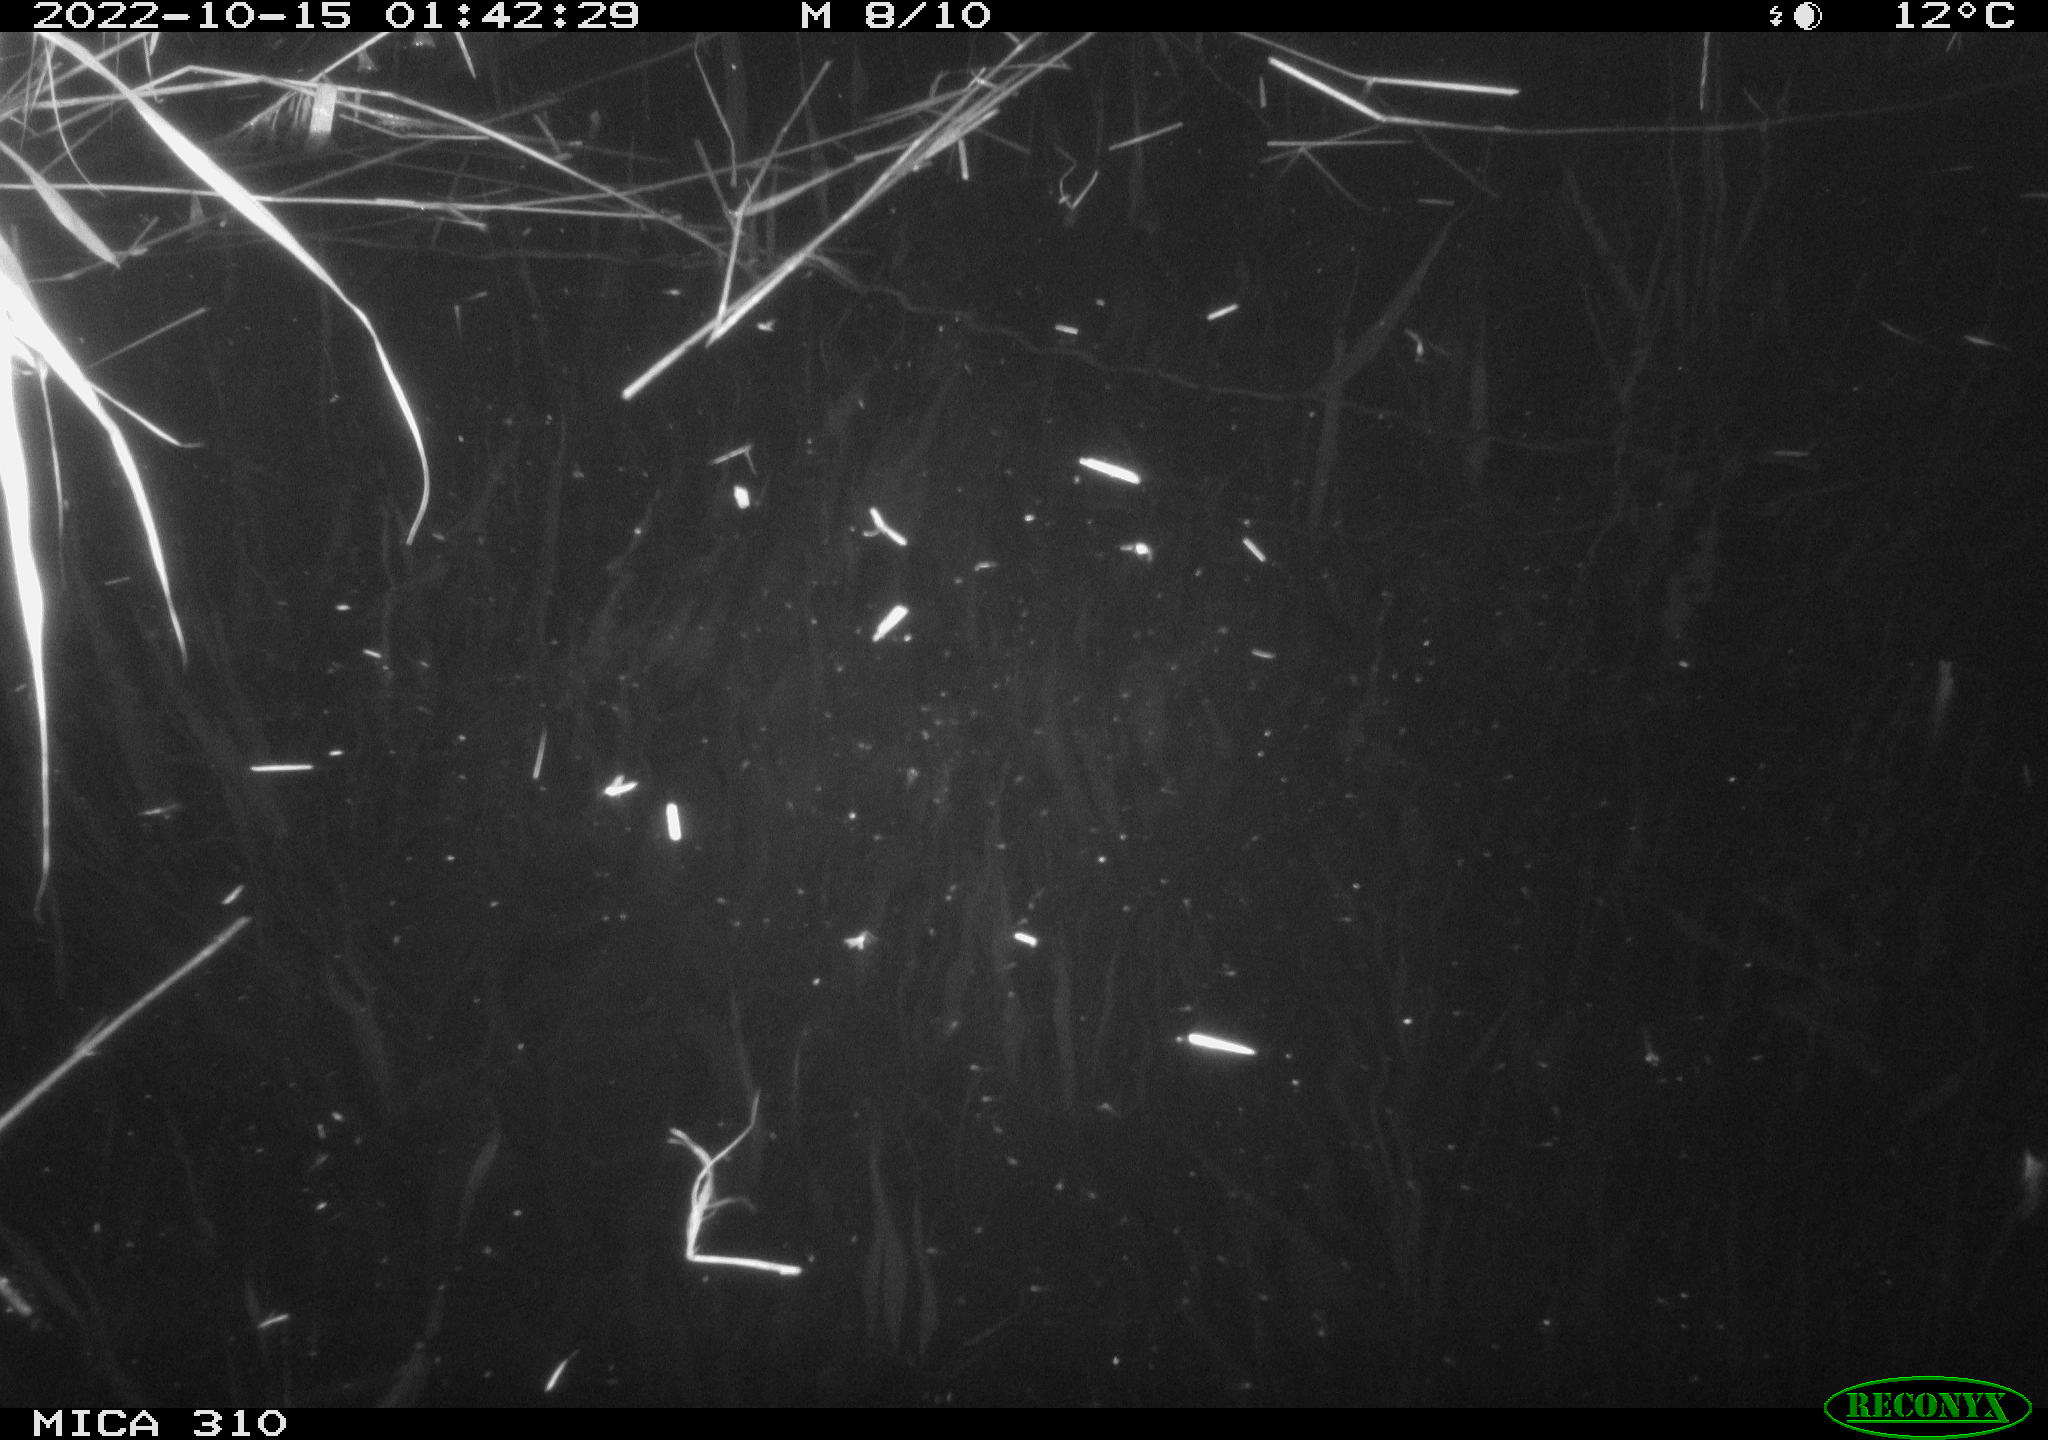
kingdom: Animalia
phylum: Chordata
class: Mammalia
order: Rodentia
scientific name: Rodentia
